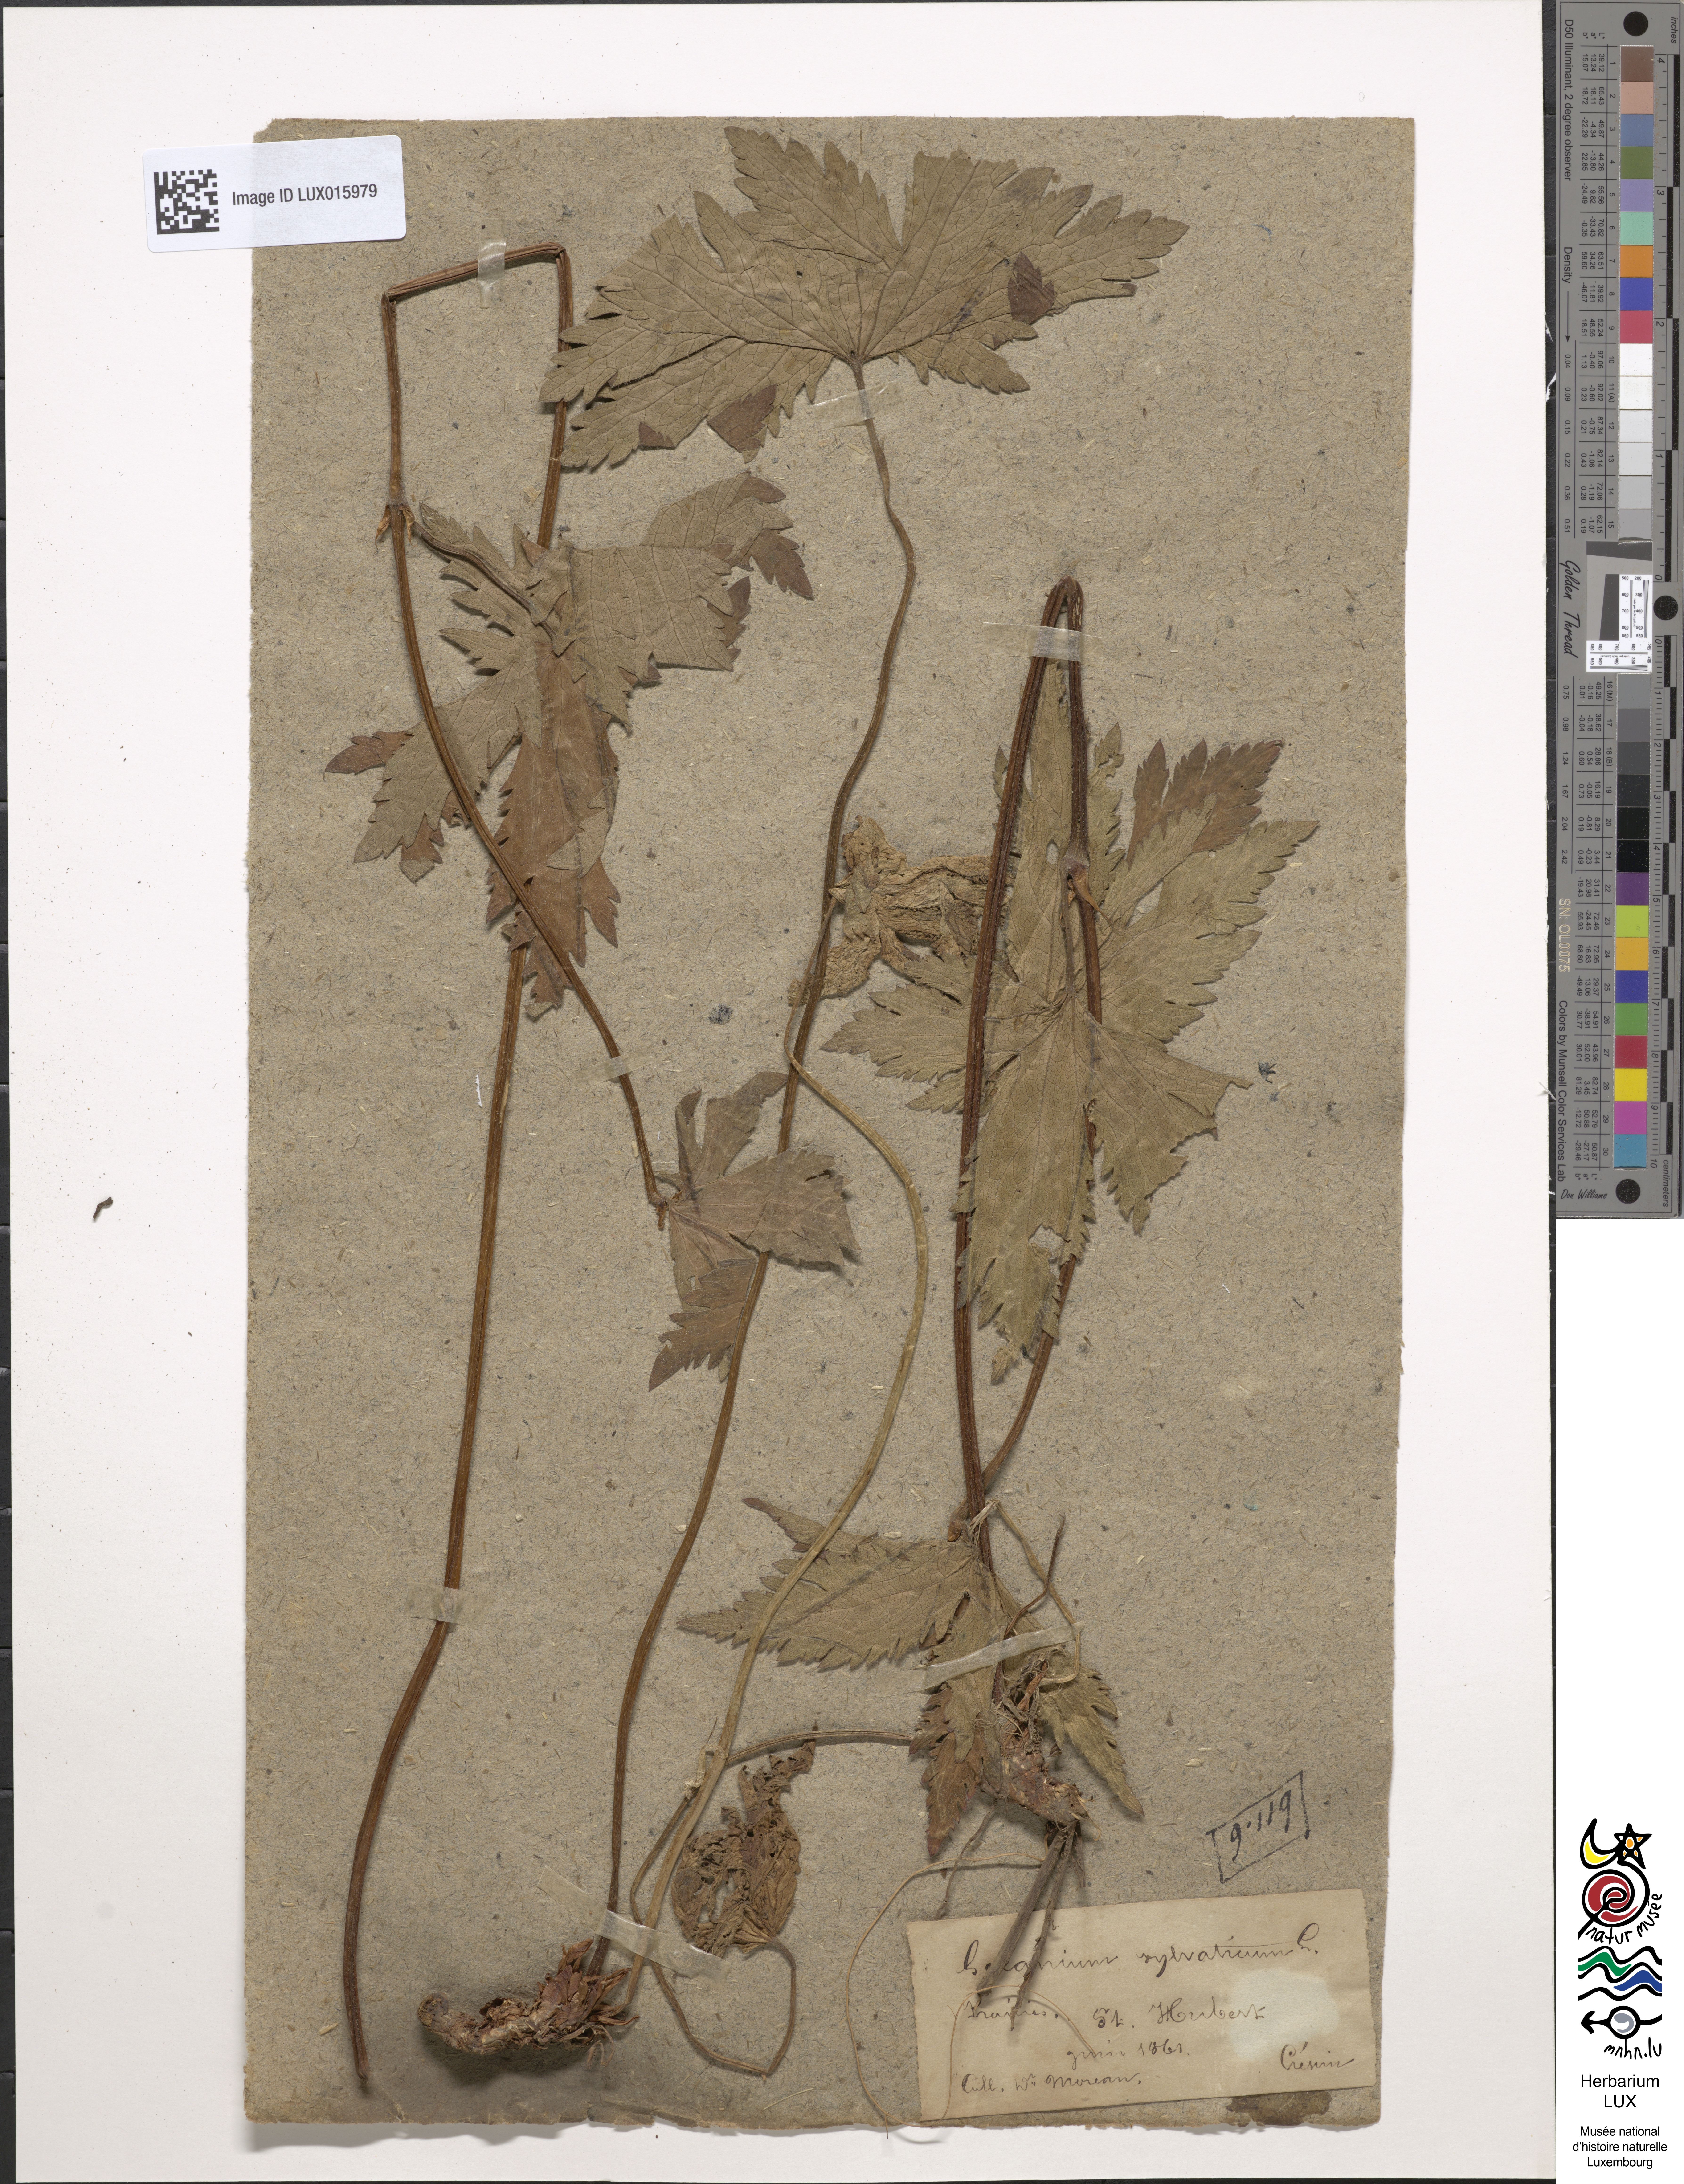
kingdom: Plantae
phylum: Tracheophyta
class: Magnoliopsida
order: Geraniales
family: Geraniaceae
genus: Geranium
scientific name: Geranium sylvaticum
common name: Wood crane's-bill
